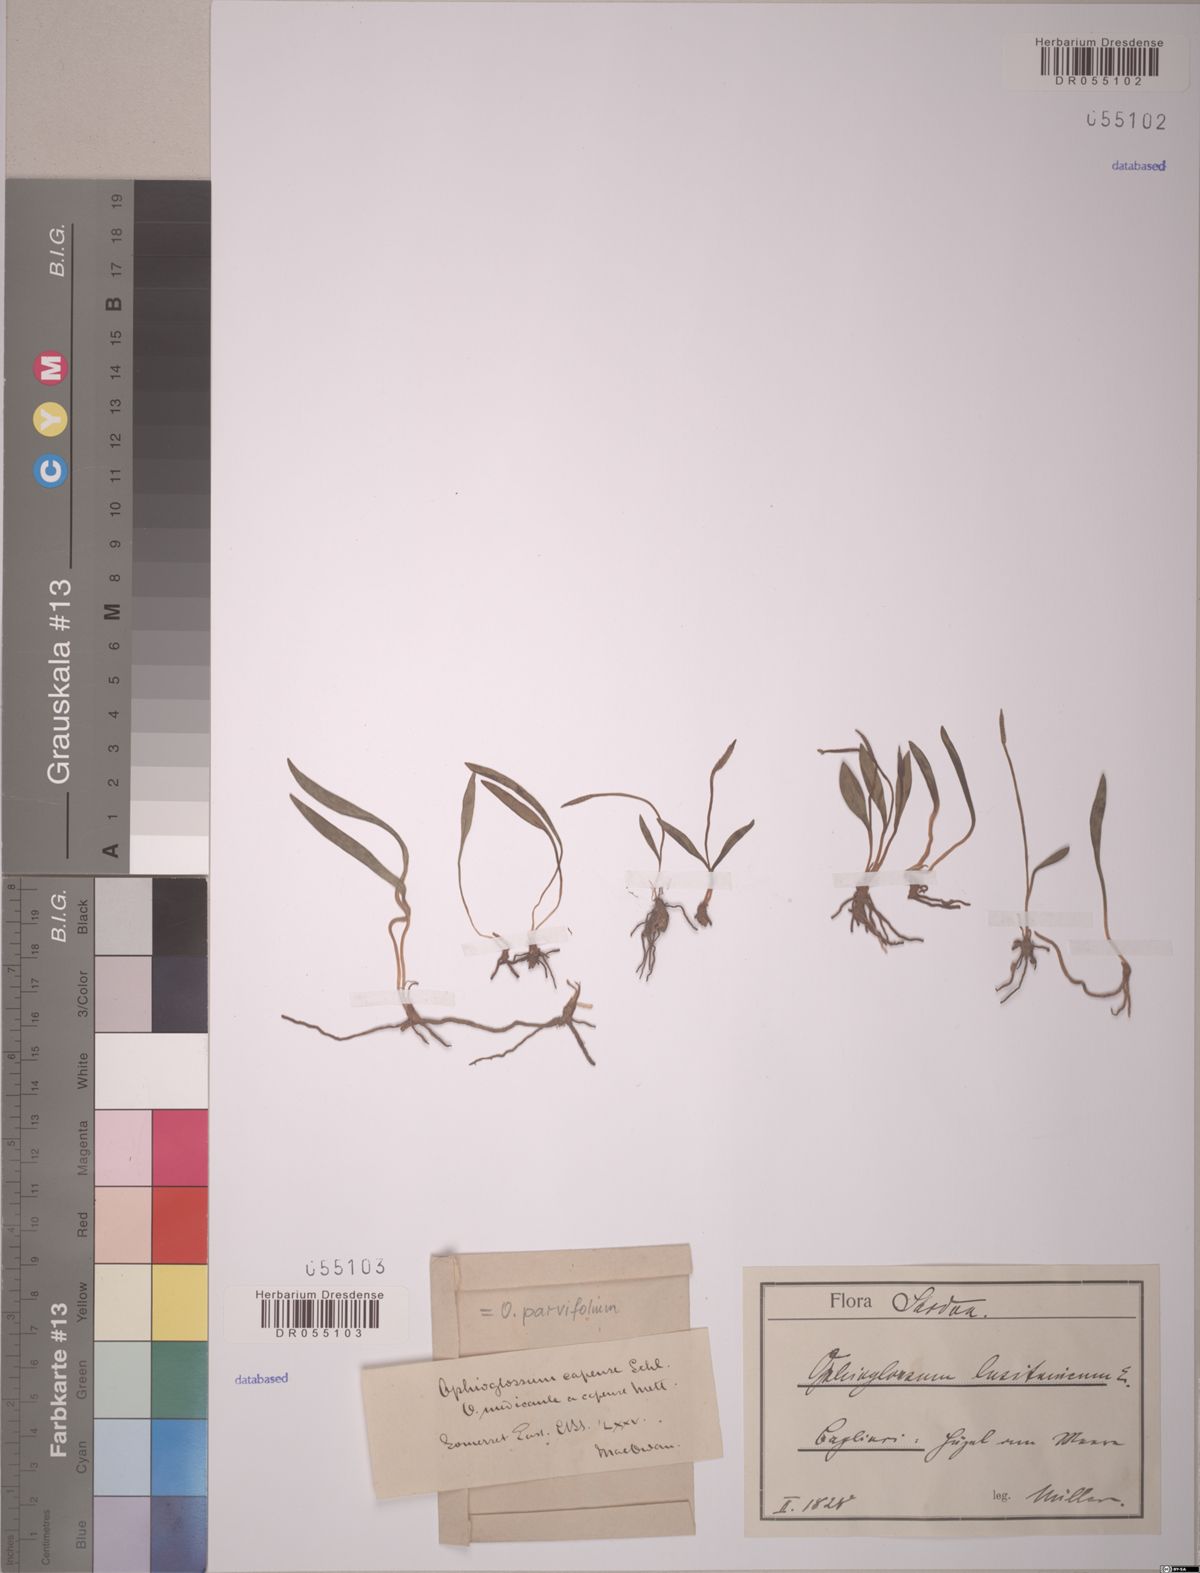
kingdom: Plantae
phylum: Tracheophyta
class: Polypodiopsida
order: Ophioglossales
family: Ophioglossaceae
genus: Ophioglossum
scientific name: Ophioglossum lusitanicum
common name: Least adder's-tongue
